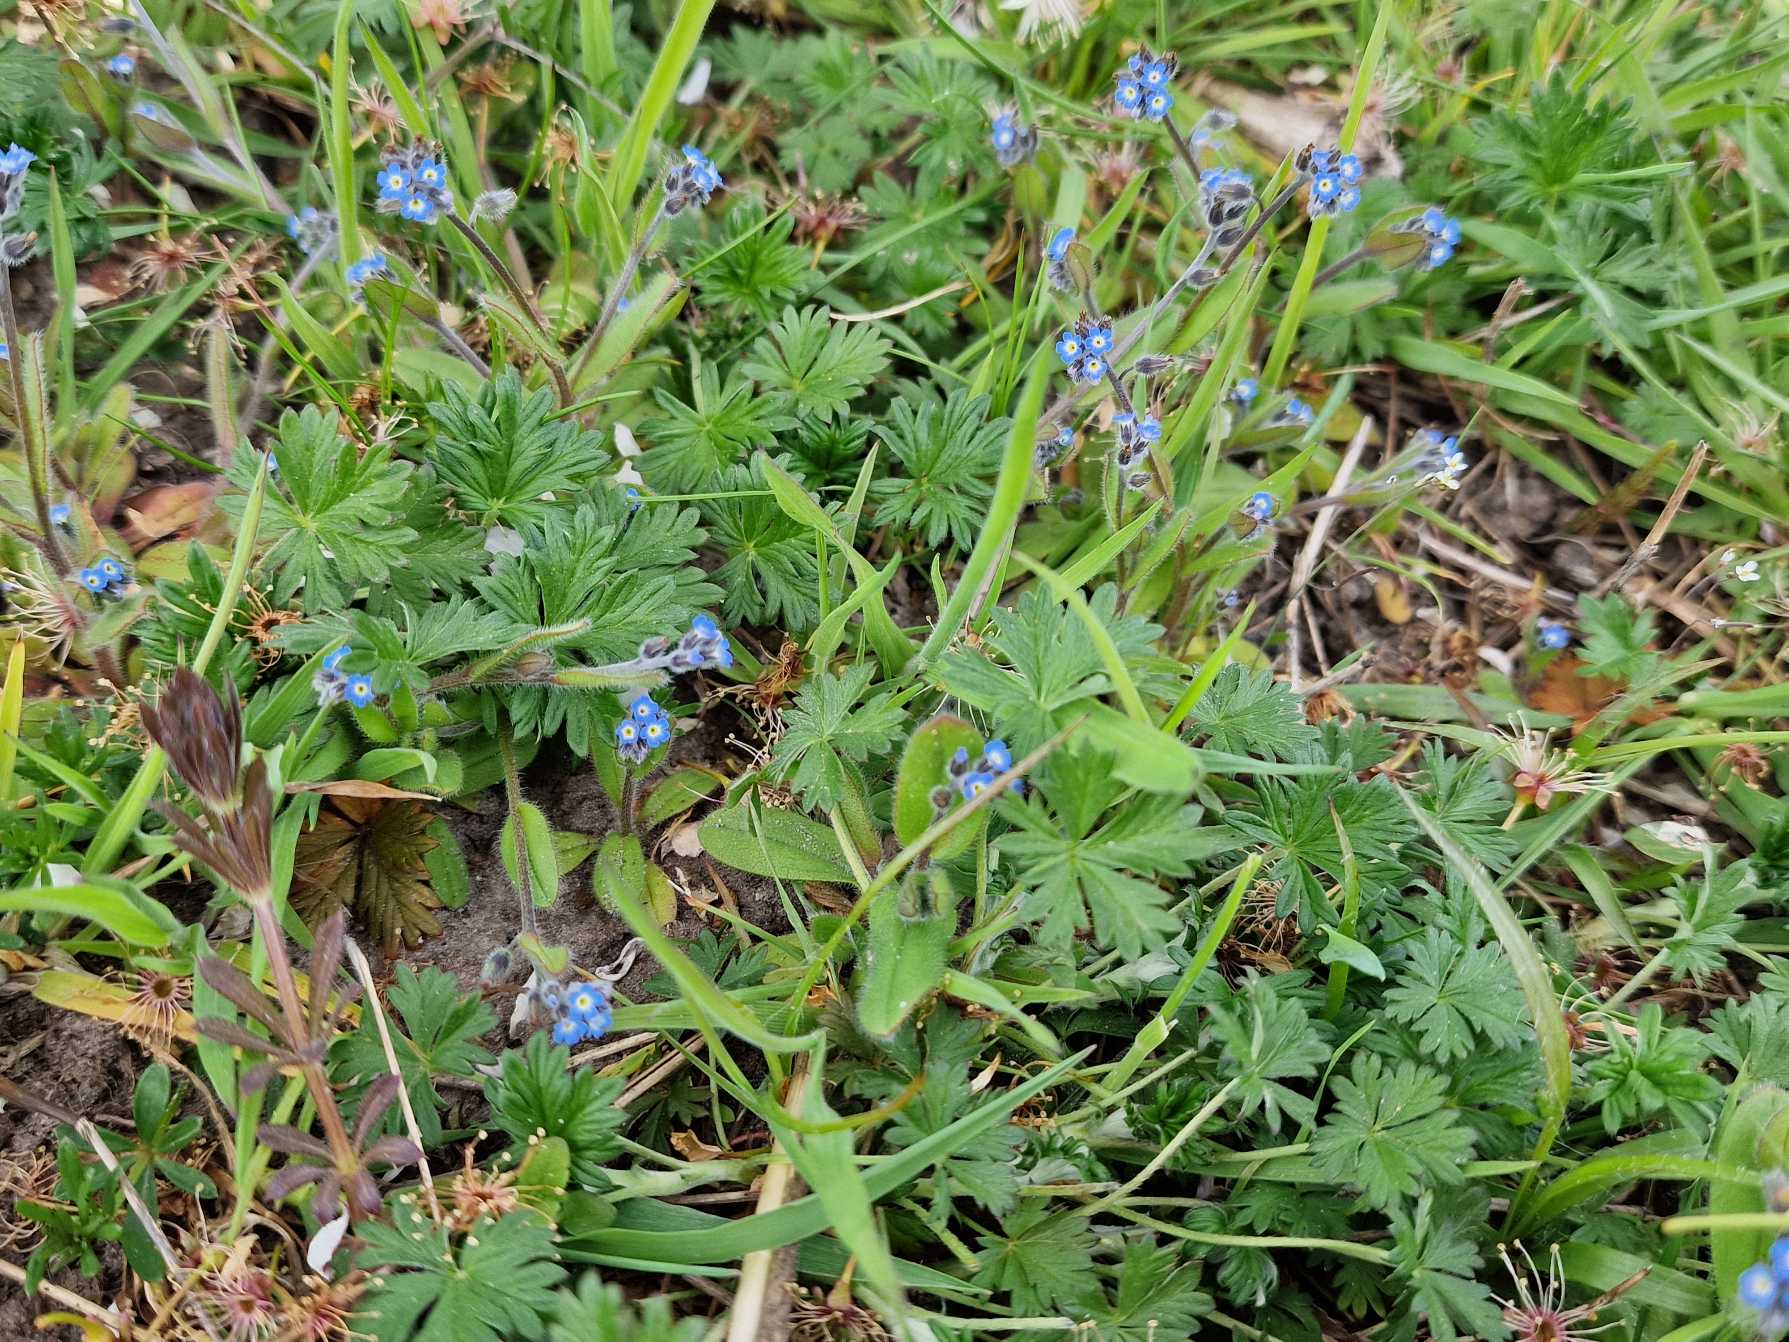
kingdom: Plantae
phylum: Tracheophyta
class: Magnoliopsida
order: Boraginales
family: Boraginaceae
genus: Myosotis
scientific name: Myosotis ramosissima
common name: Bakke-forglemmigej
